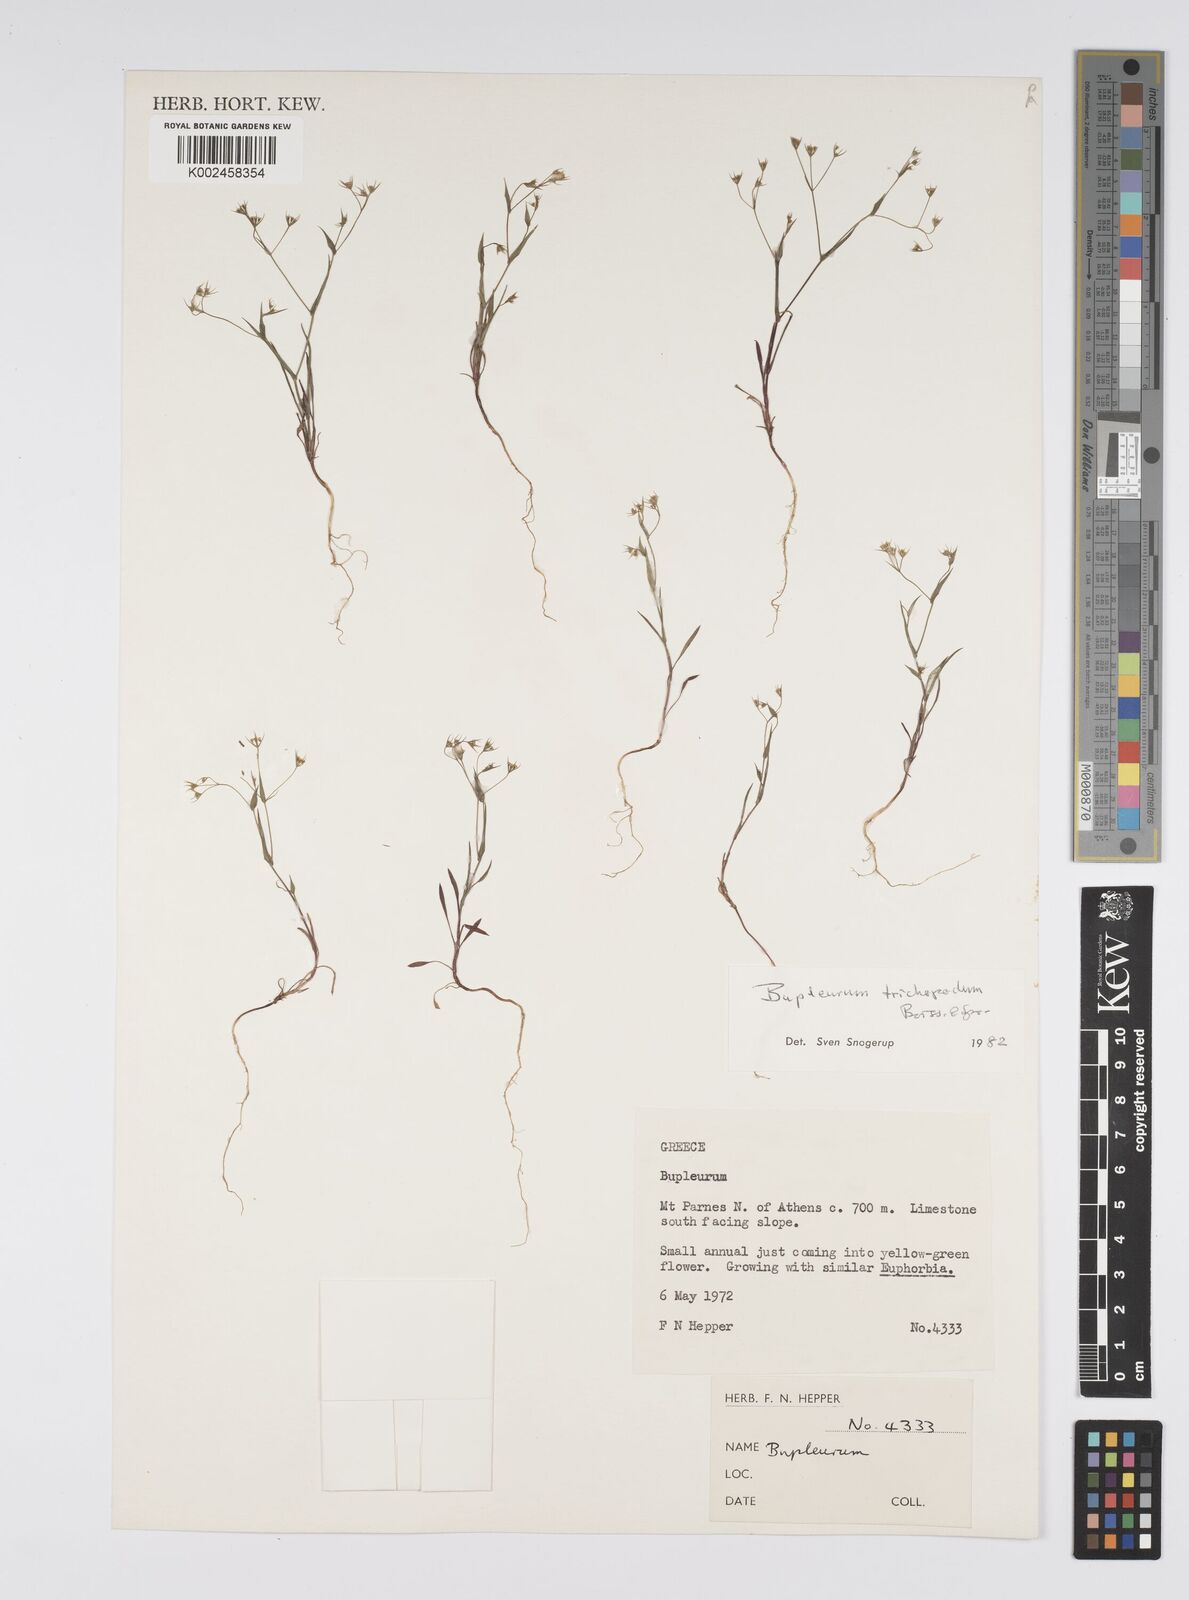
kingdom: Plantae
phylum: Tracheophyta
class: Magnoliopsida
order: Apiales
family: Apiaceae
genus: Bupleurum
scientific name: Bupleurum trichopodum
